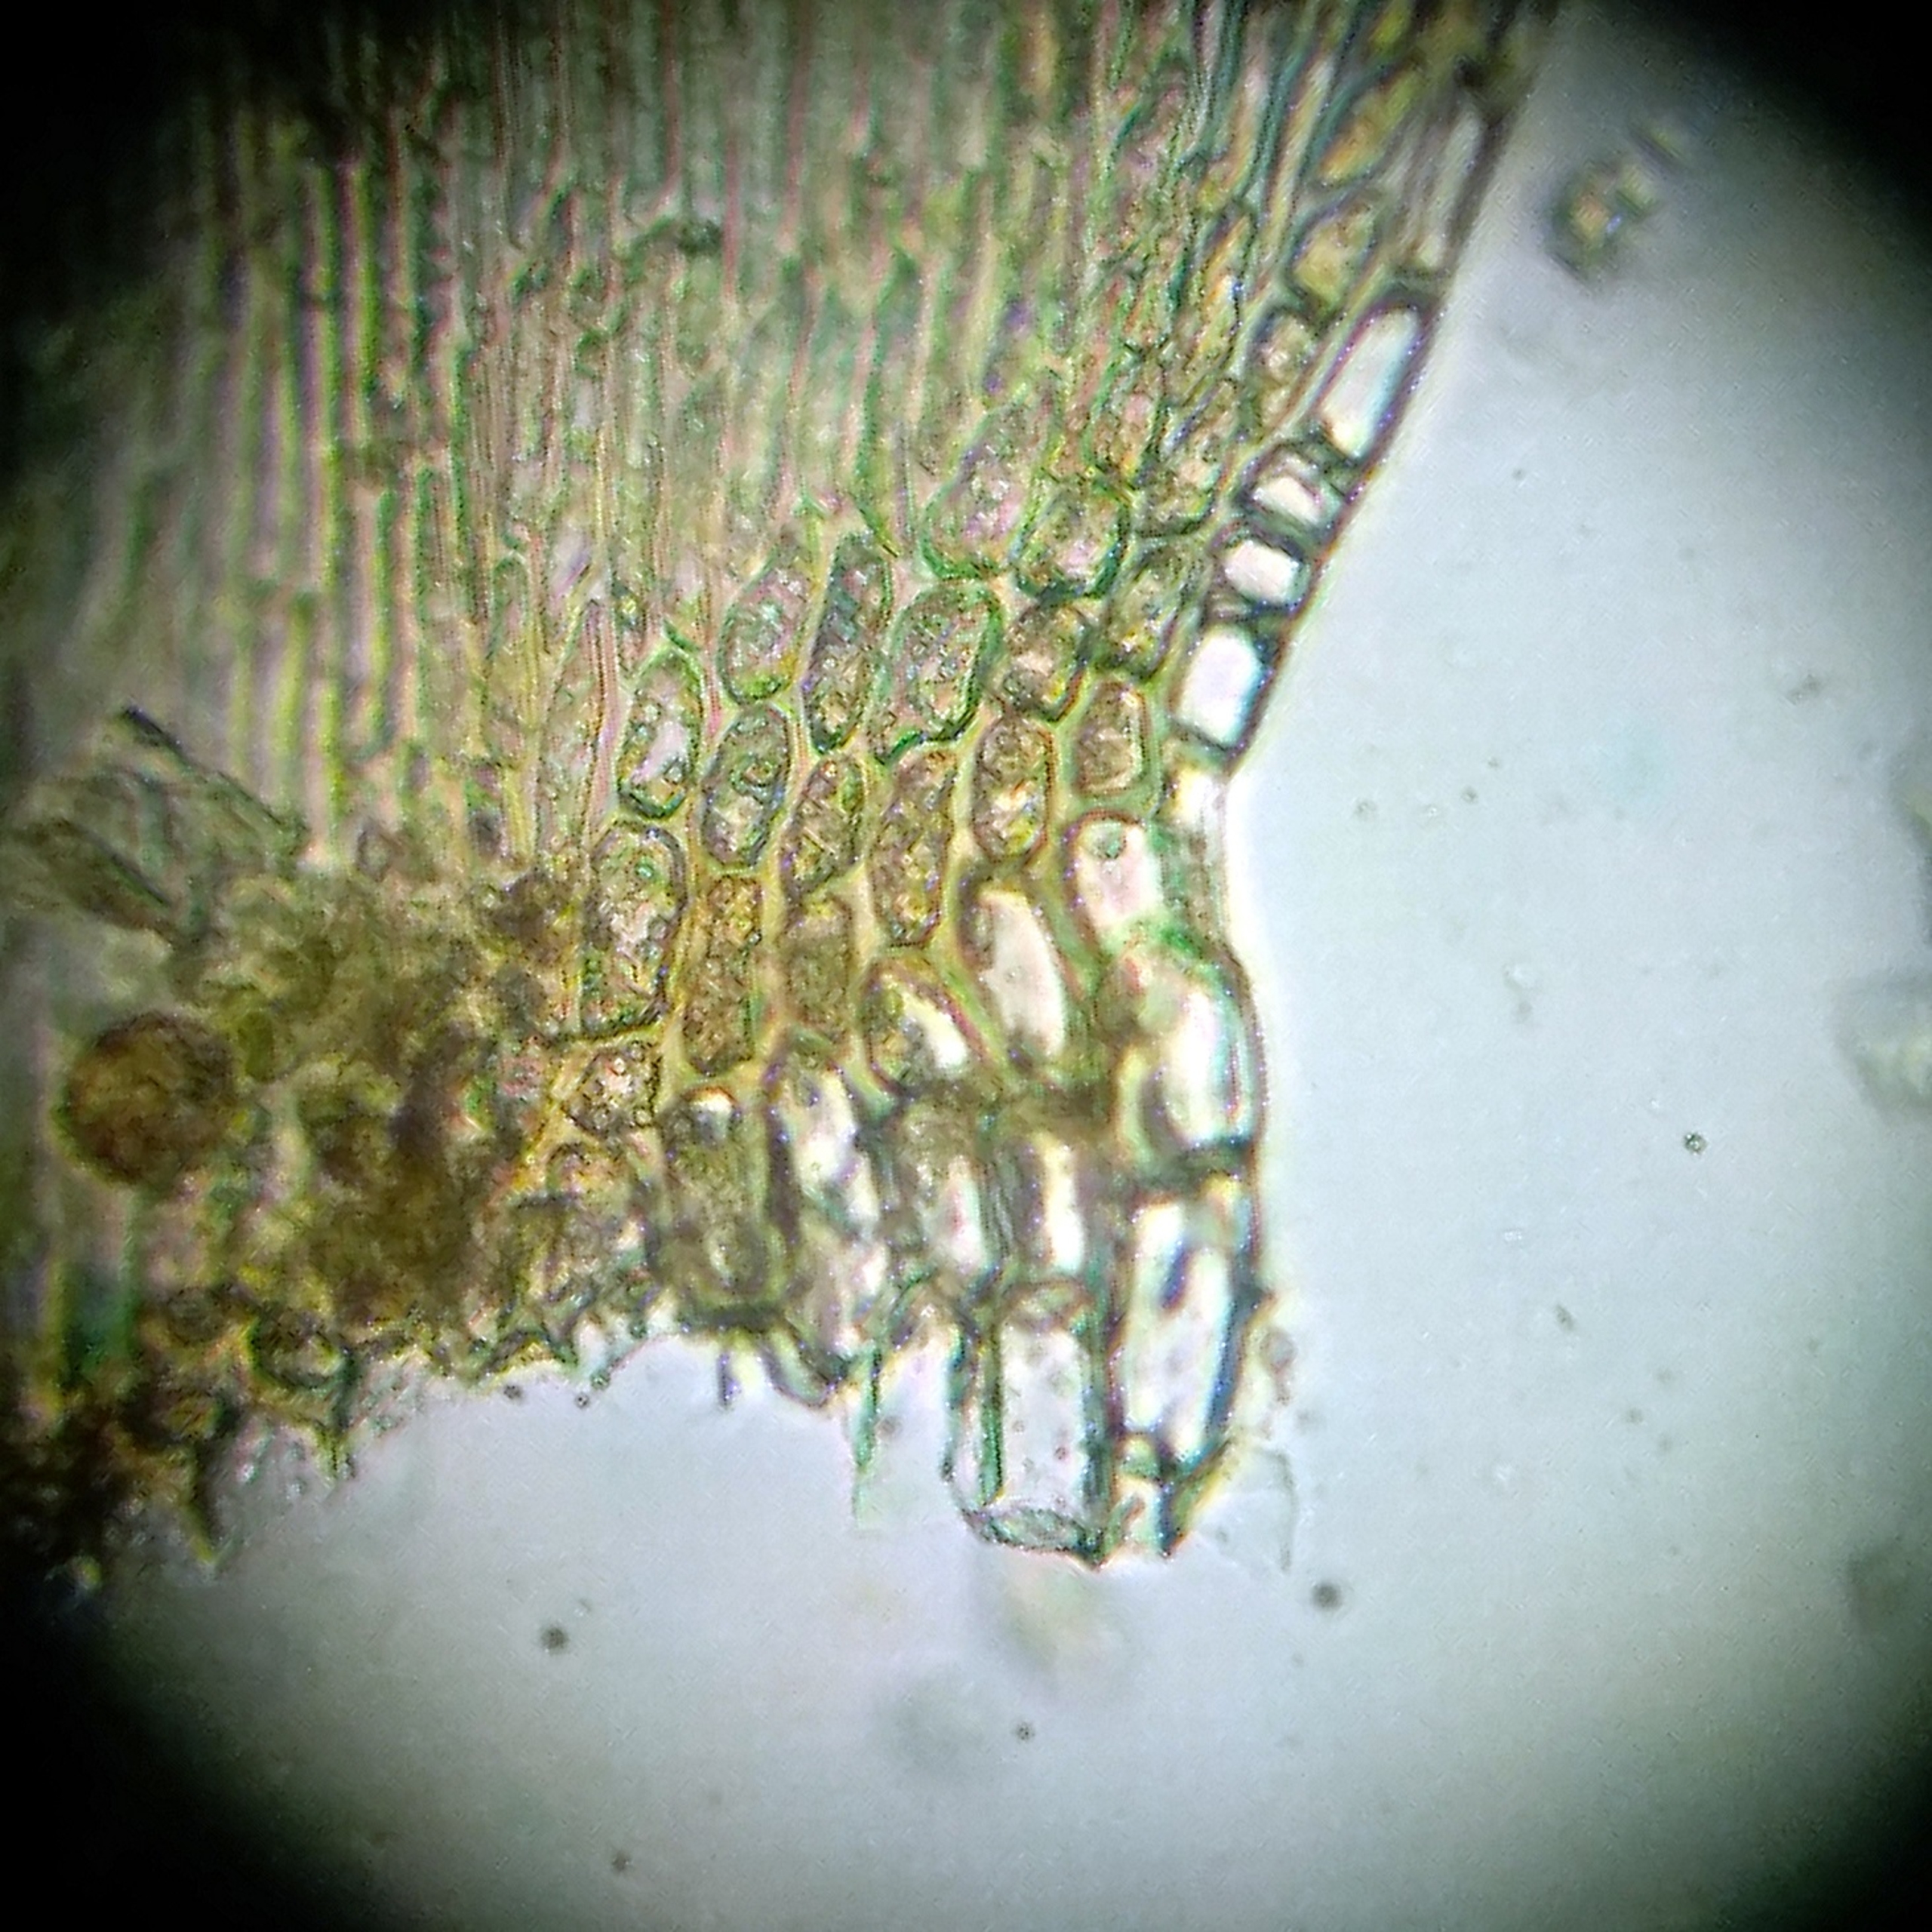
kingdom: Plantae
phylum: Bryophyta
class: Bryopsida
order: Hypnales
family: Scorpidiaceae
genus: Sanionia
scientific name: Sanionia uncinata
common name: Stribet krogblad
